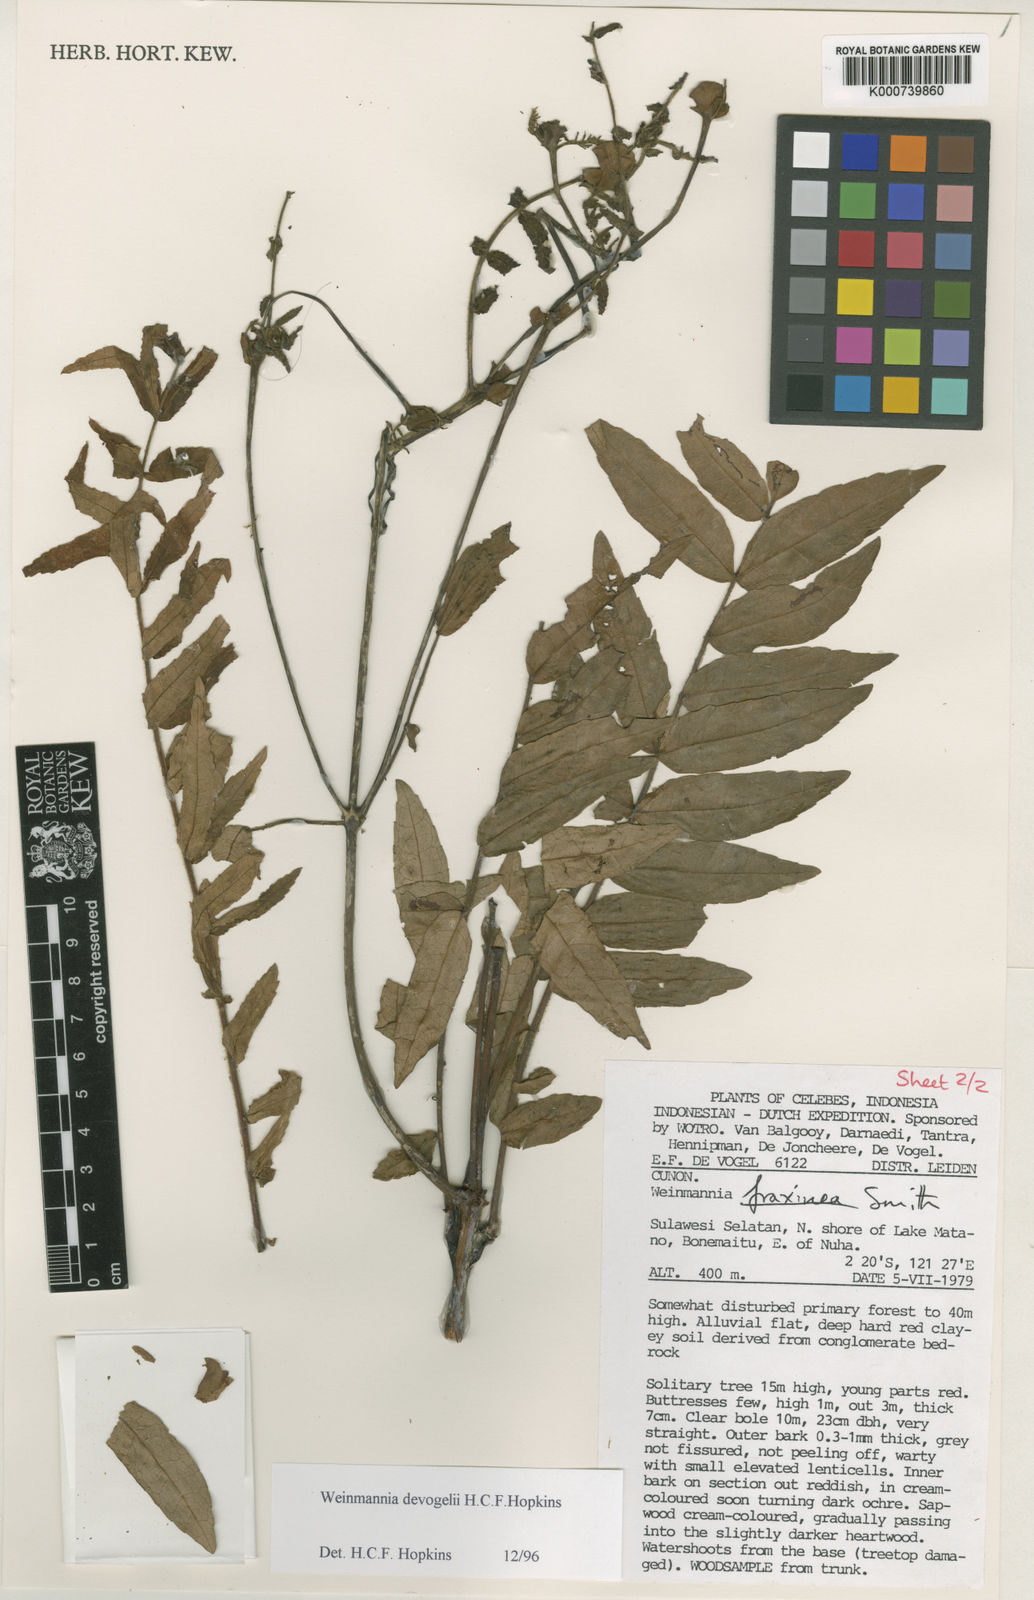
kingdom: Plantae
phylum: Tracheophyta
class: Magnoliopsida
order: Oxalidales
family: Cunoniaceae
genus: Pterophylla
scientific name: Pterophylla devogelii
